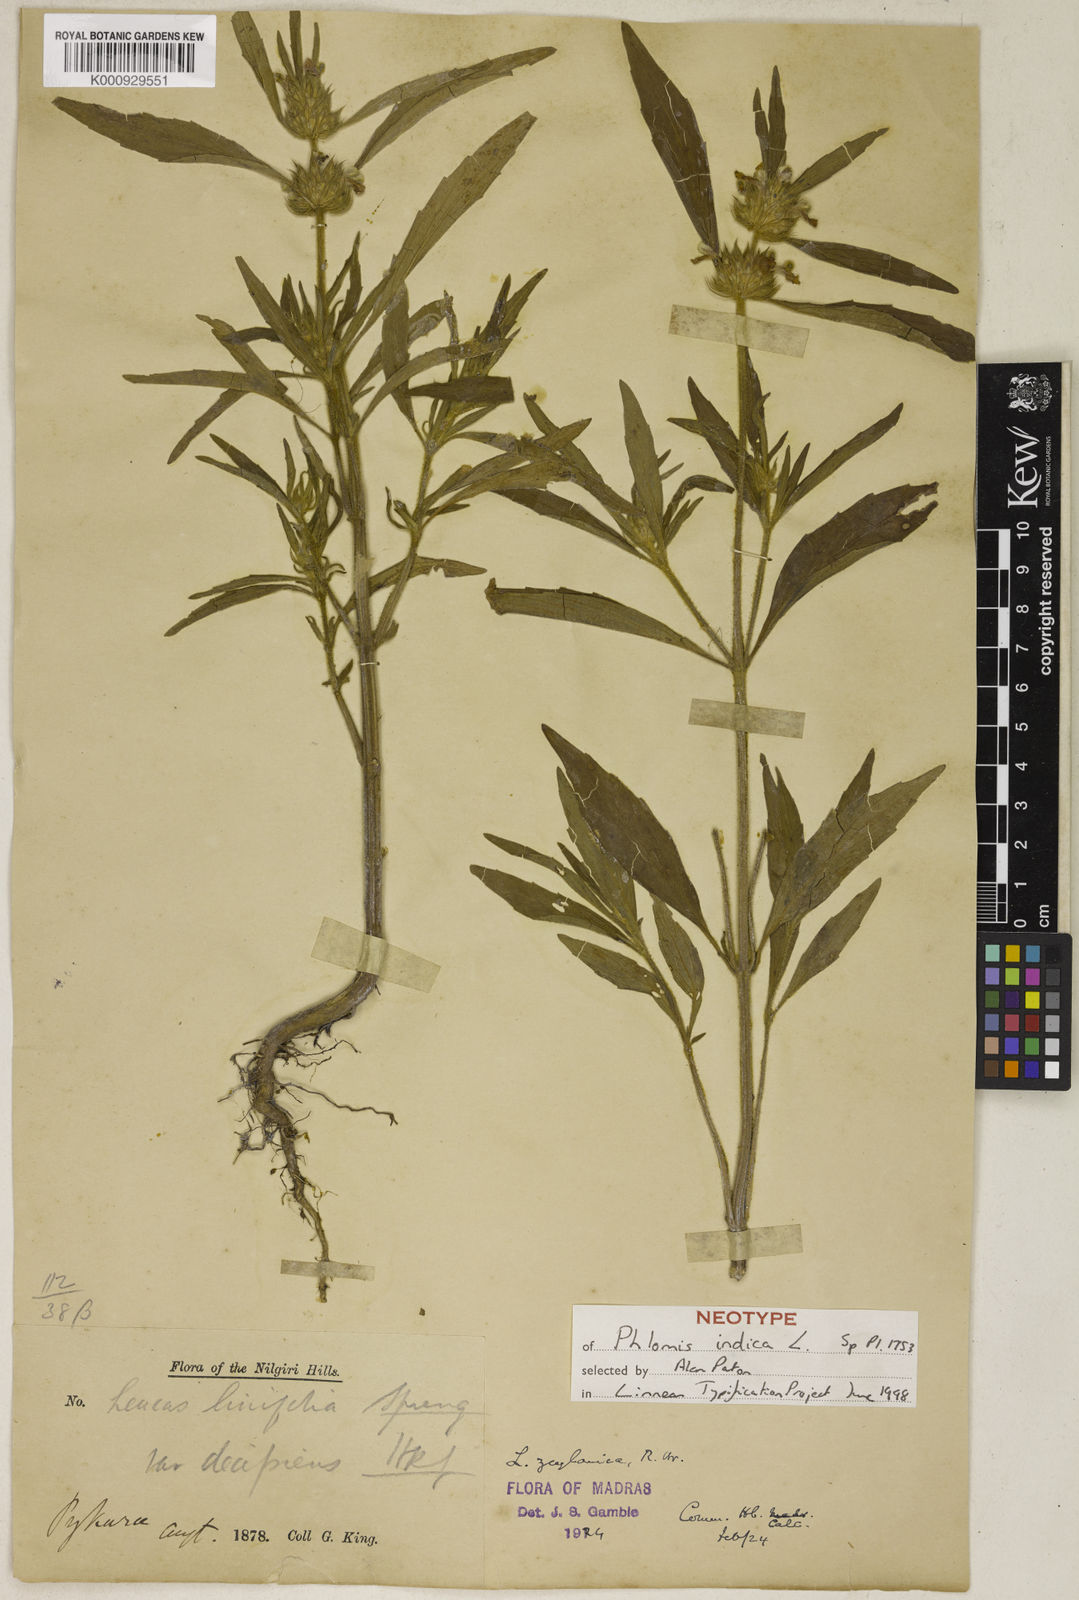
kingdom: Plantae
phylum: Tracheophyta
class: Magnoliopsida
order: Lamiales
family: Lamiaceae
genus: Leucas
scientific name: Leucas zeylanica
